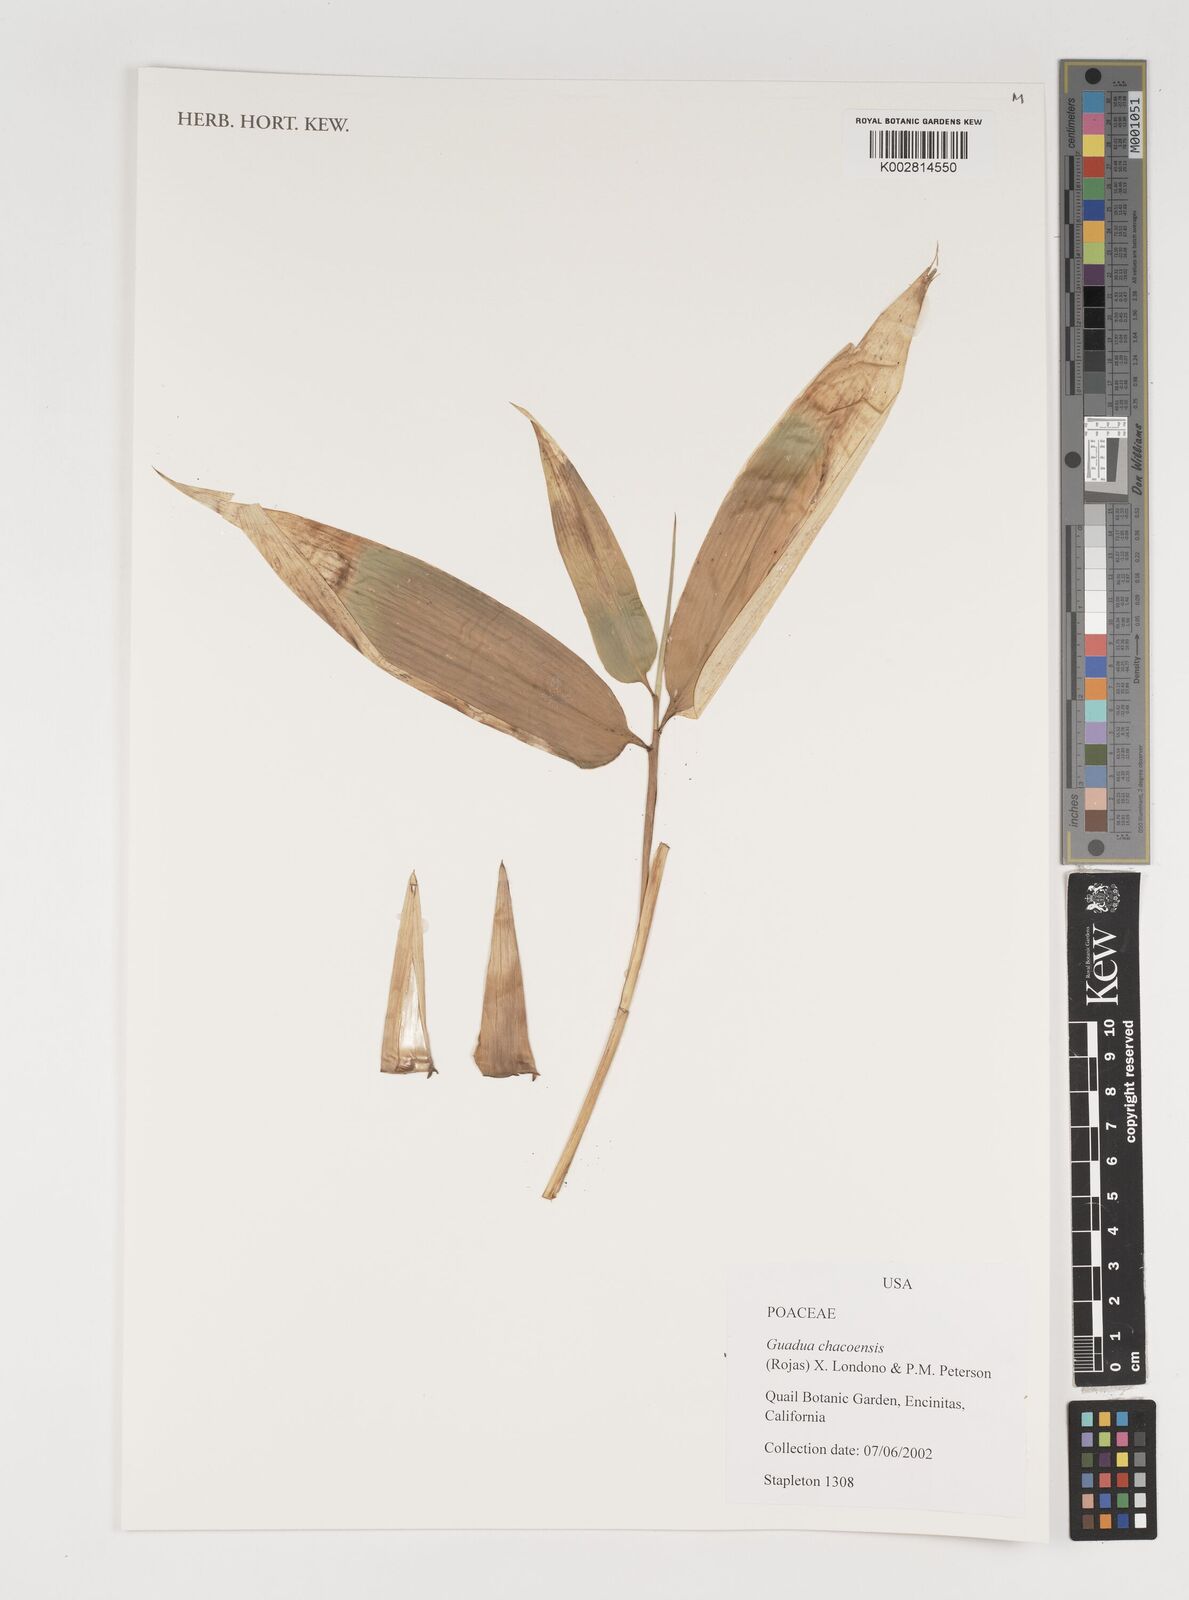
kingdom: Plantae
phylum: Tracheophyta
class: Liliopsida
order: Poales
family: Poaceae
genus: Guadua
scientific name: Guadua chacoensis
